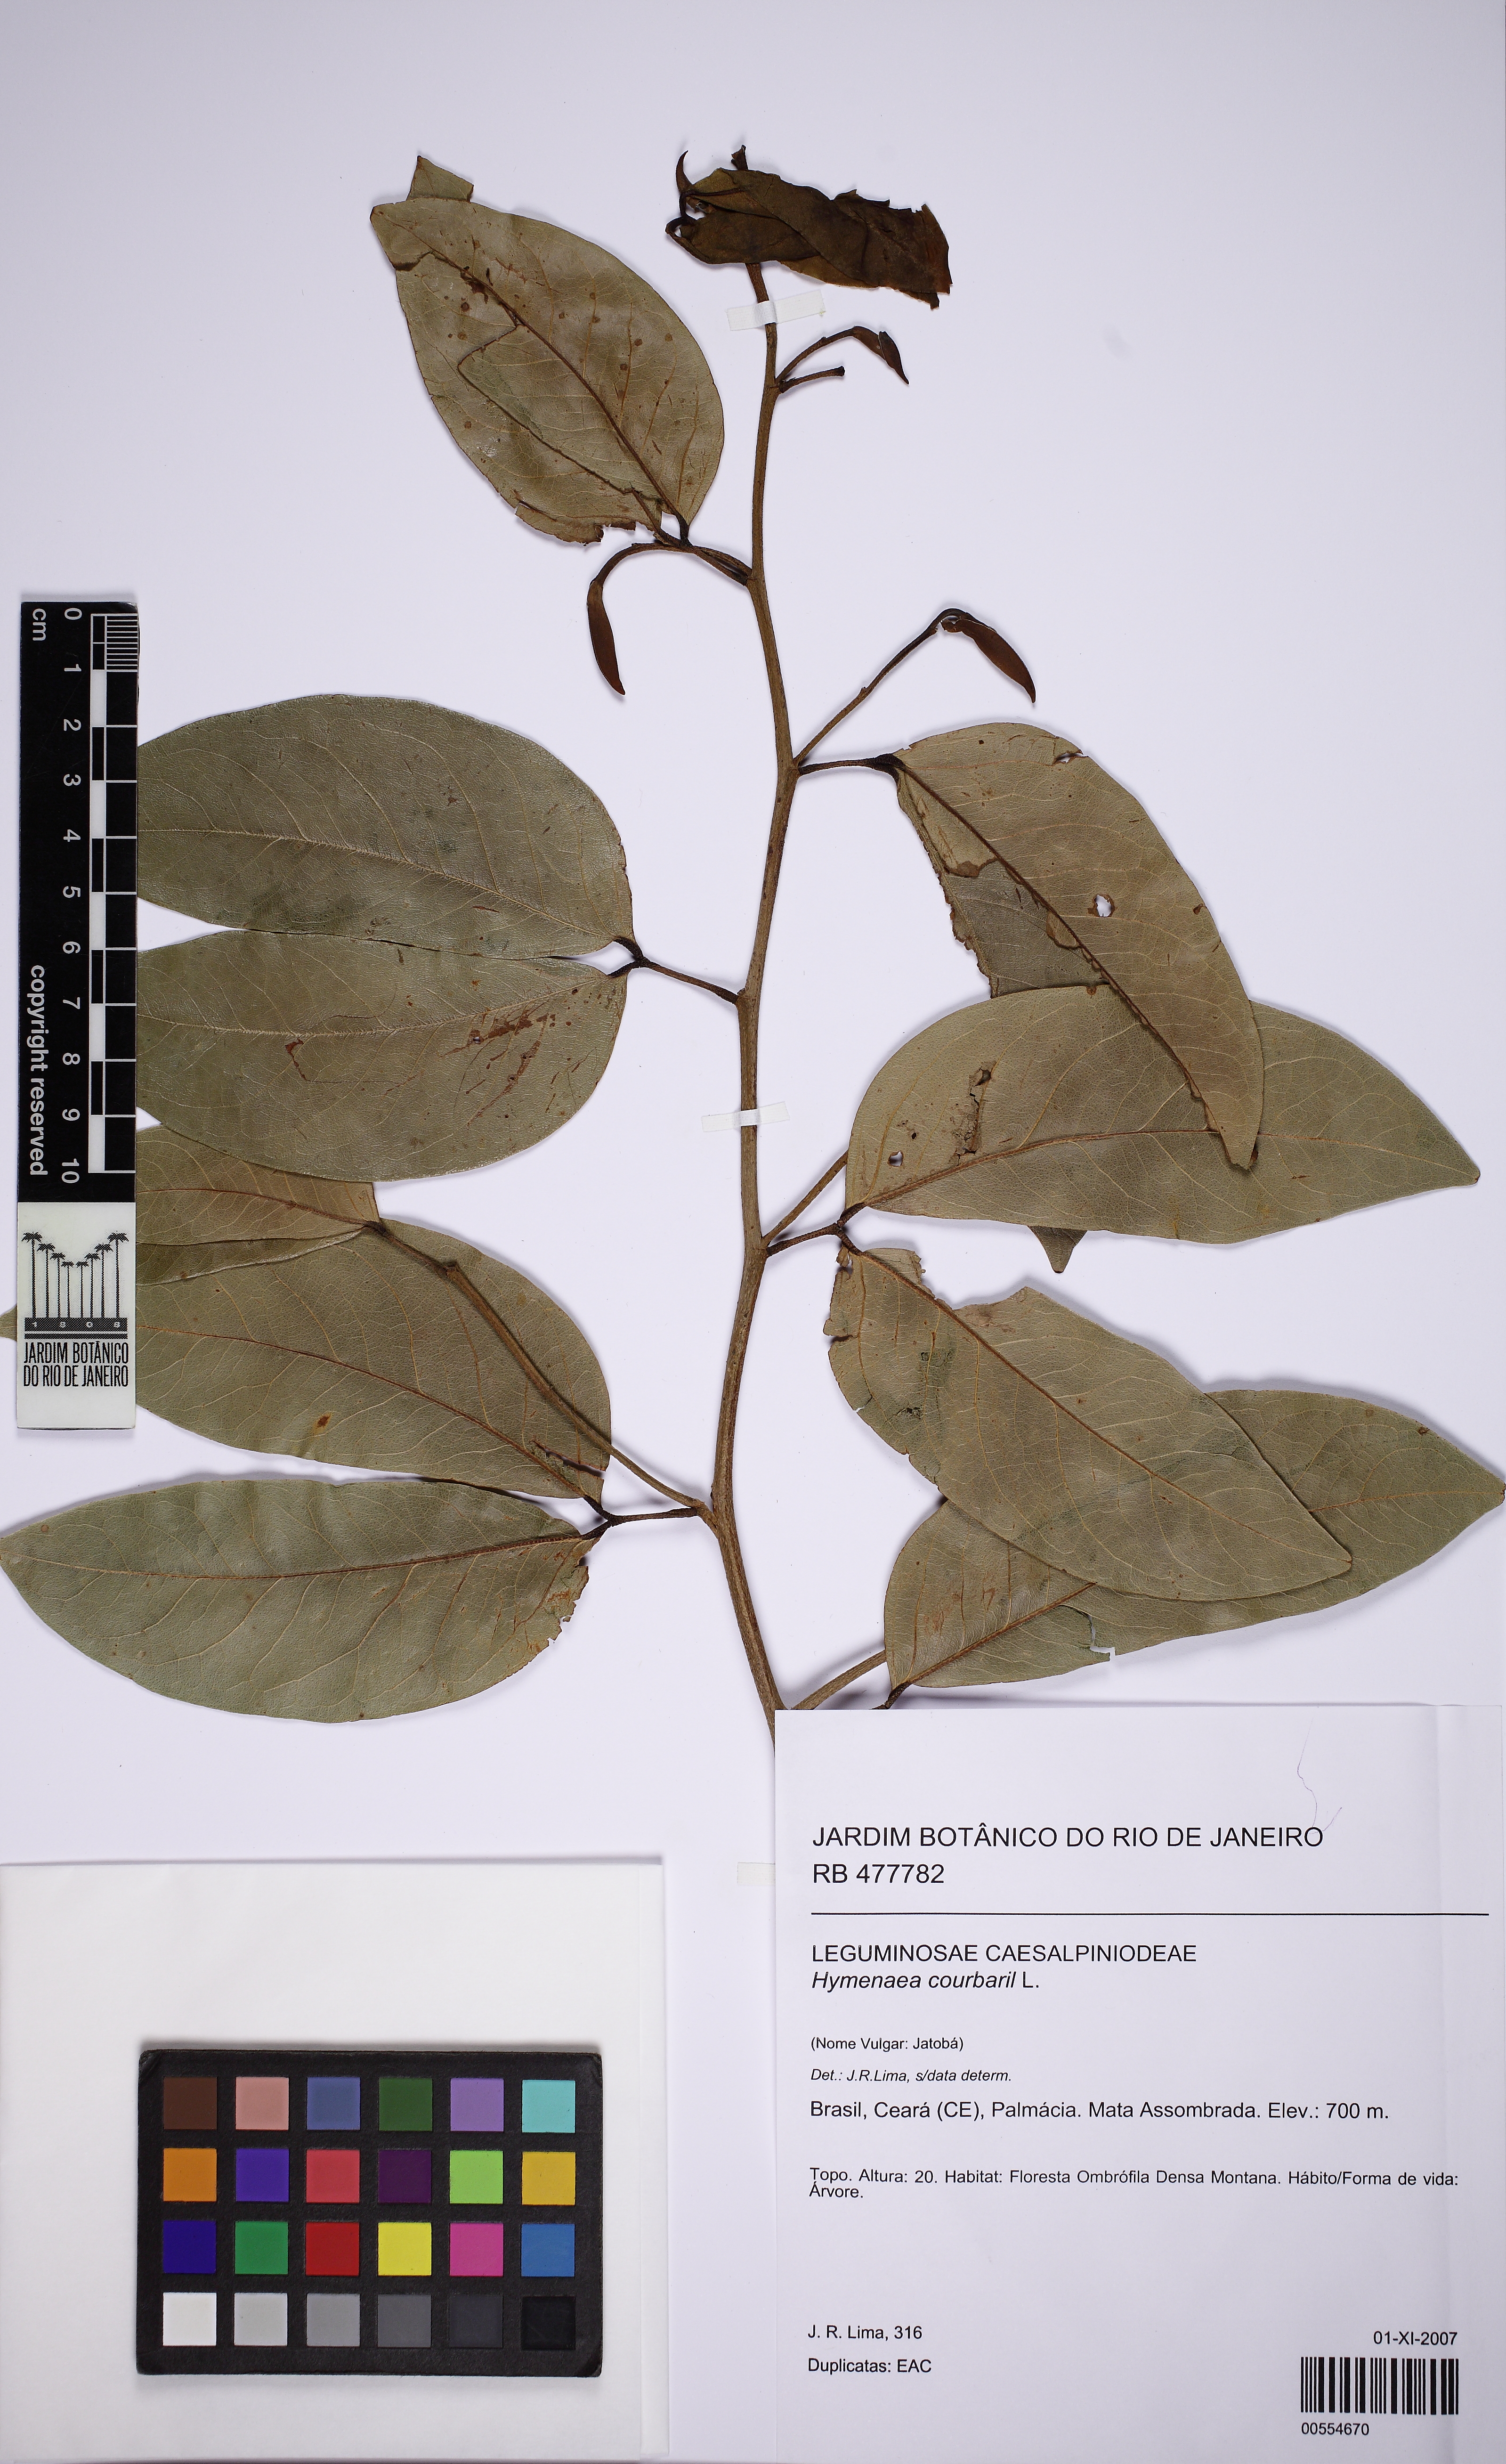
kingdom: Plantae
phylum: Tracheophyta
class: Magnoliopsida
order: Fabales
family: Fabaceae
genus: Hymenaea
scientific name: Hymenaea courbaril
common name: Brazilian copal
